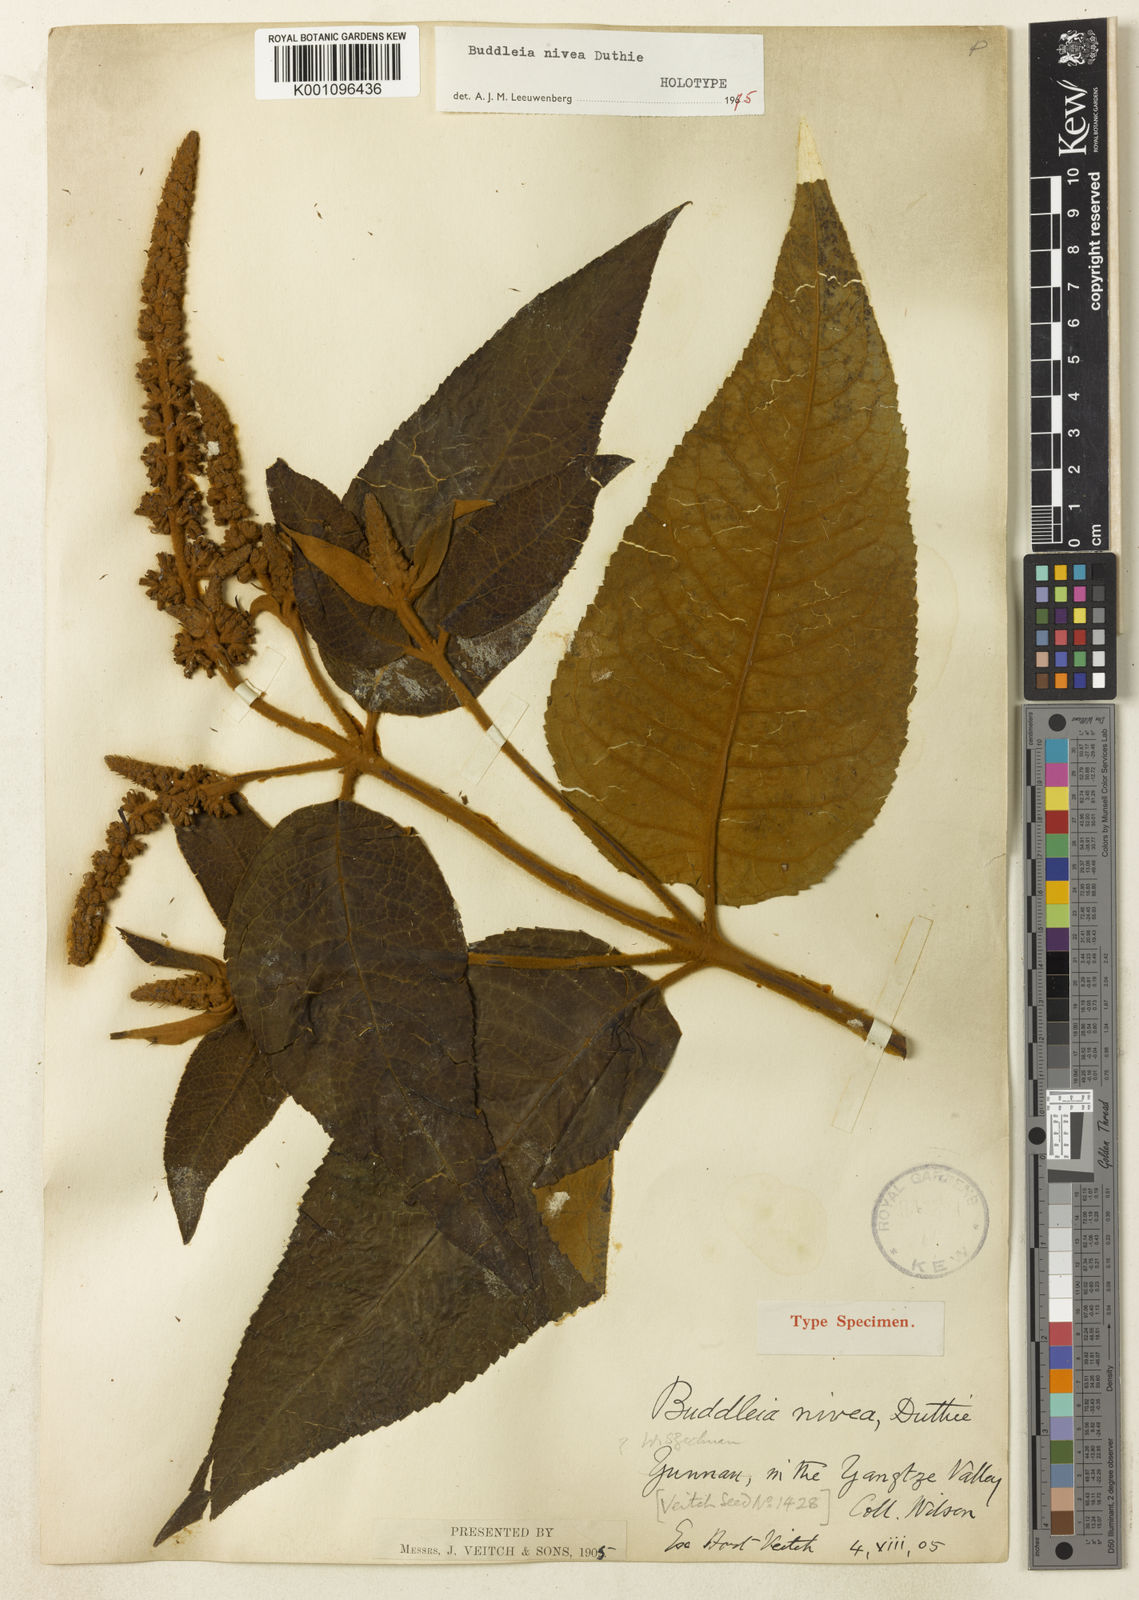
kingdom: Plantae
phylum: Tracheophyta
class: Magnoliopsida
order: Lamiales
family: Scrophulariaceae
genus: Buddleja
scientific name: Buddleja nivea
